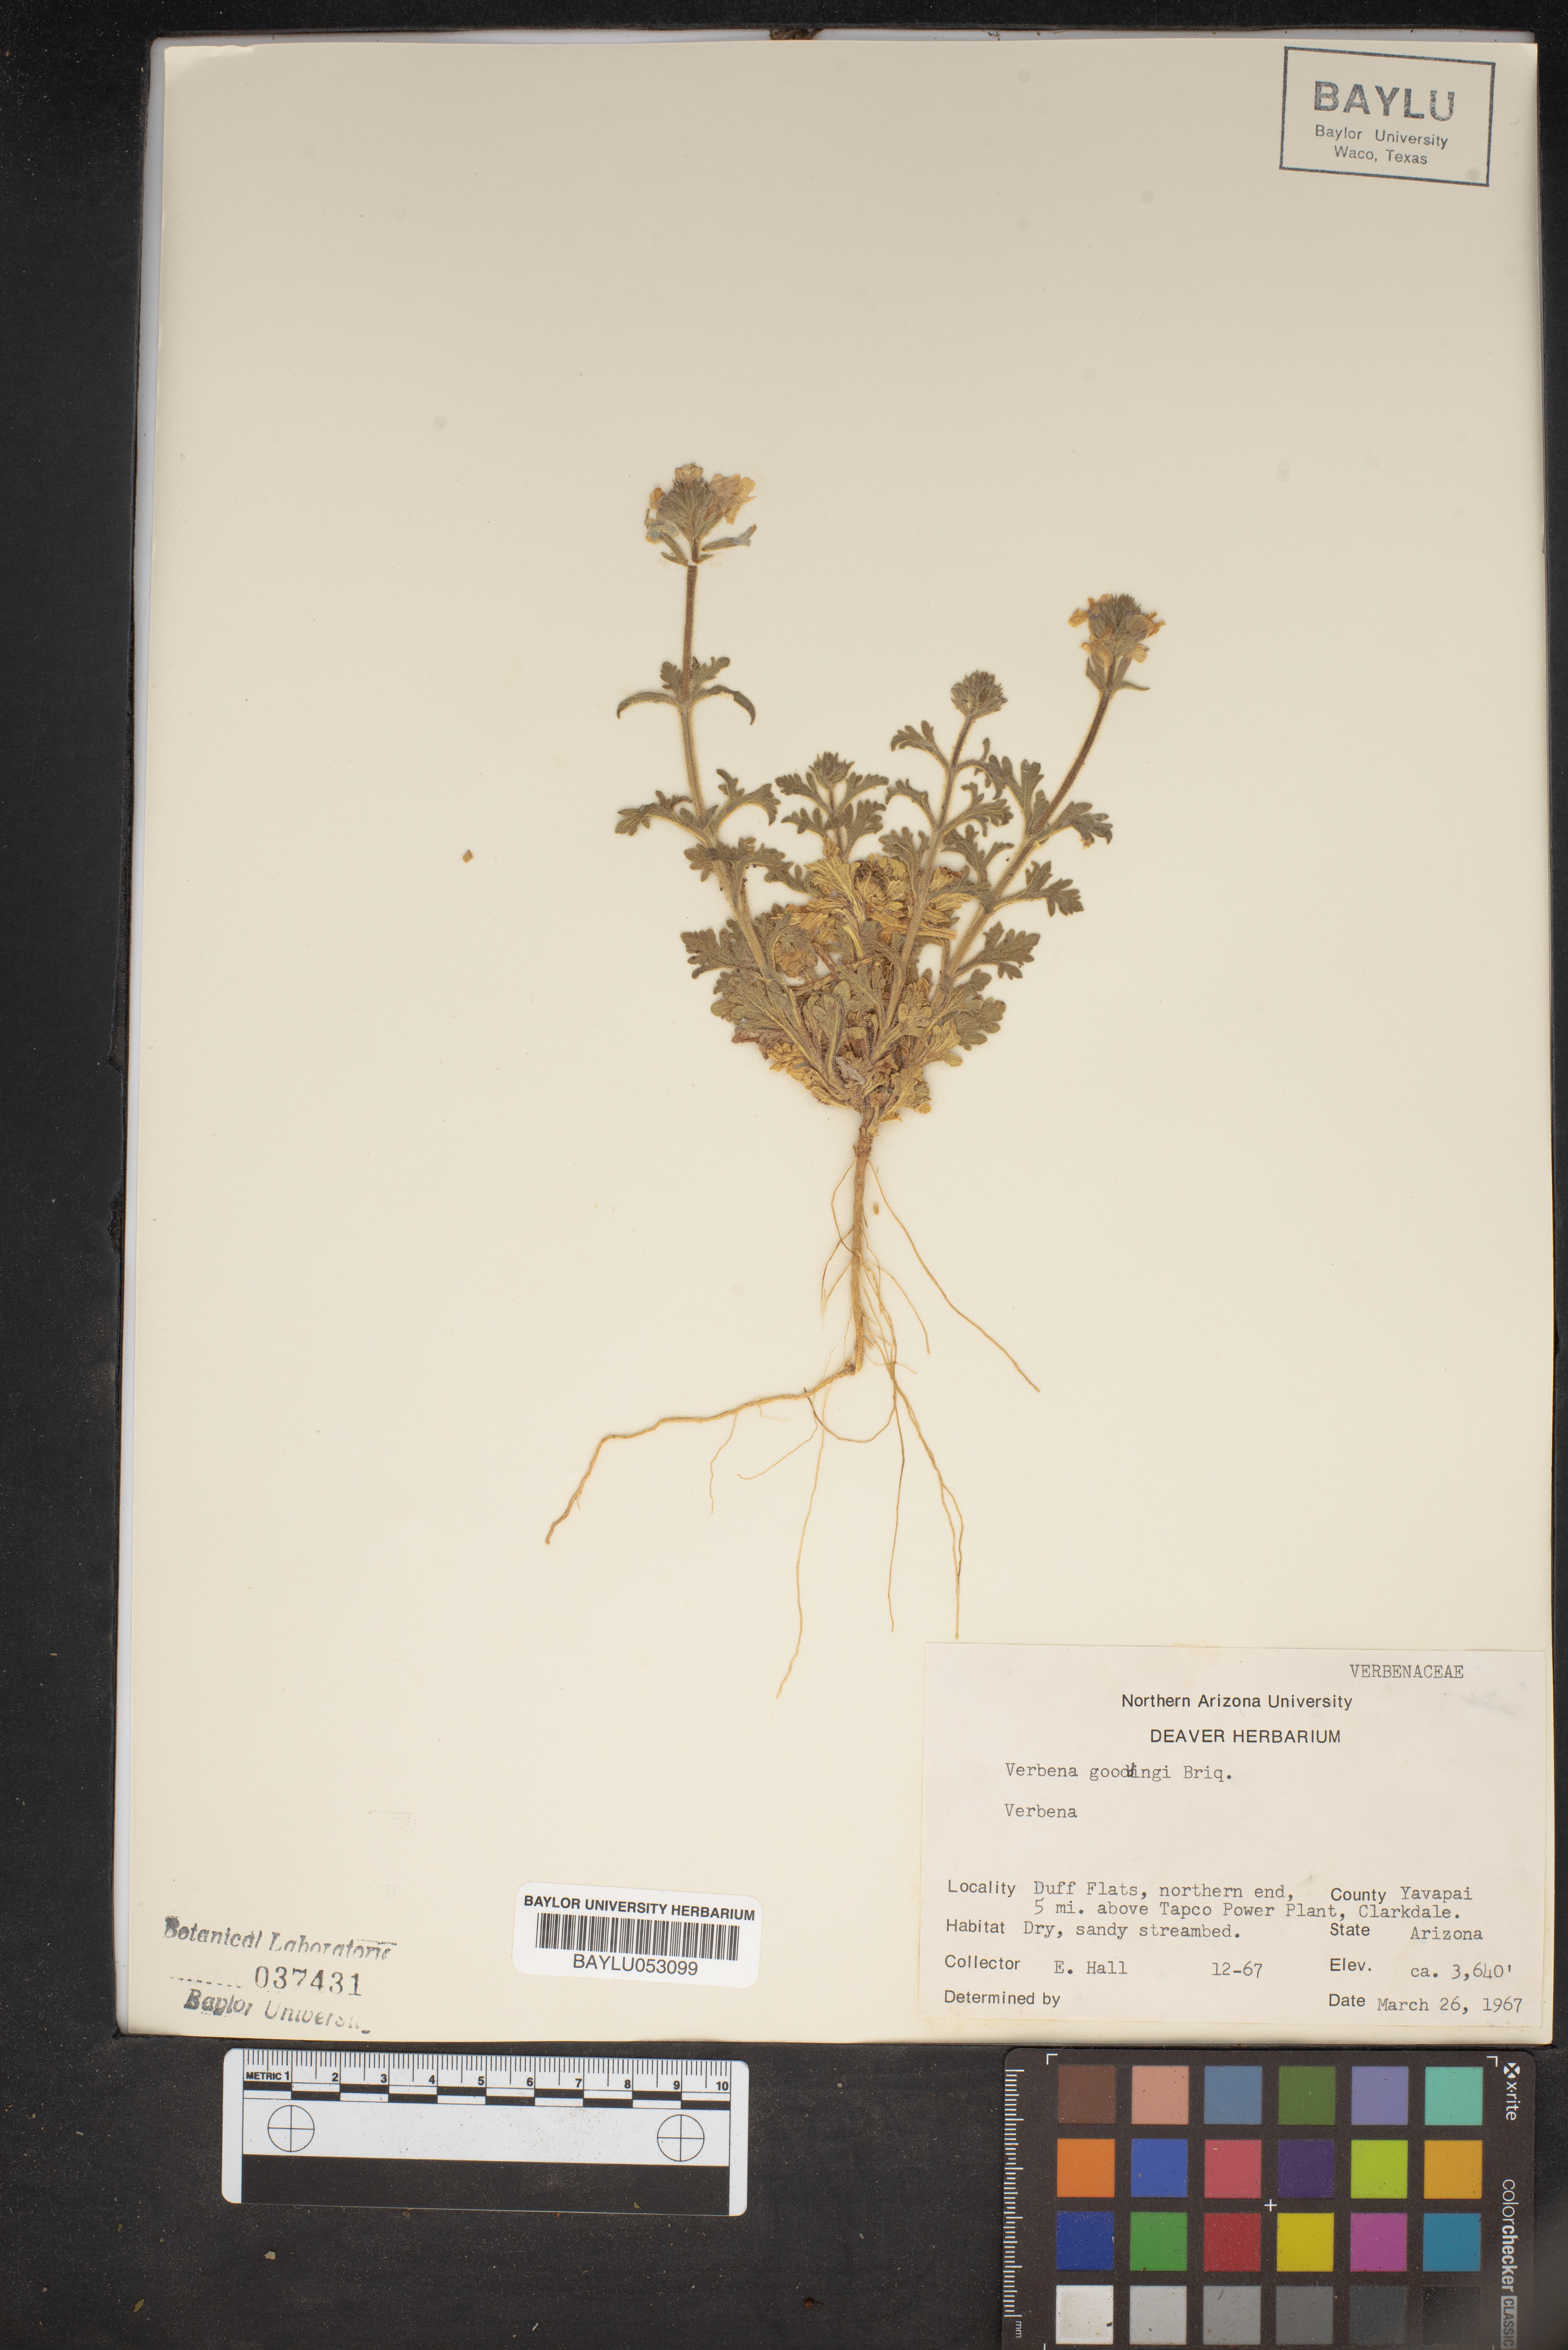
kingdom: Plantae
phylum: Tracheophyta
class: Magnoliopsida
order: Lamiales
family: Verbenaceae
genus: Verbena
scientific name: Verbena gooddingii
